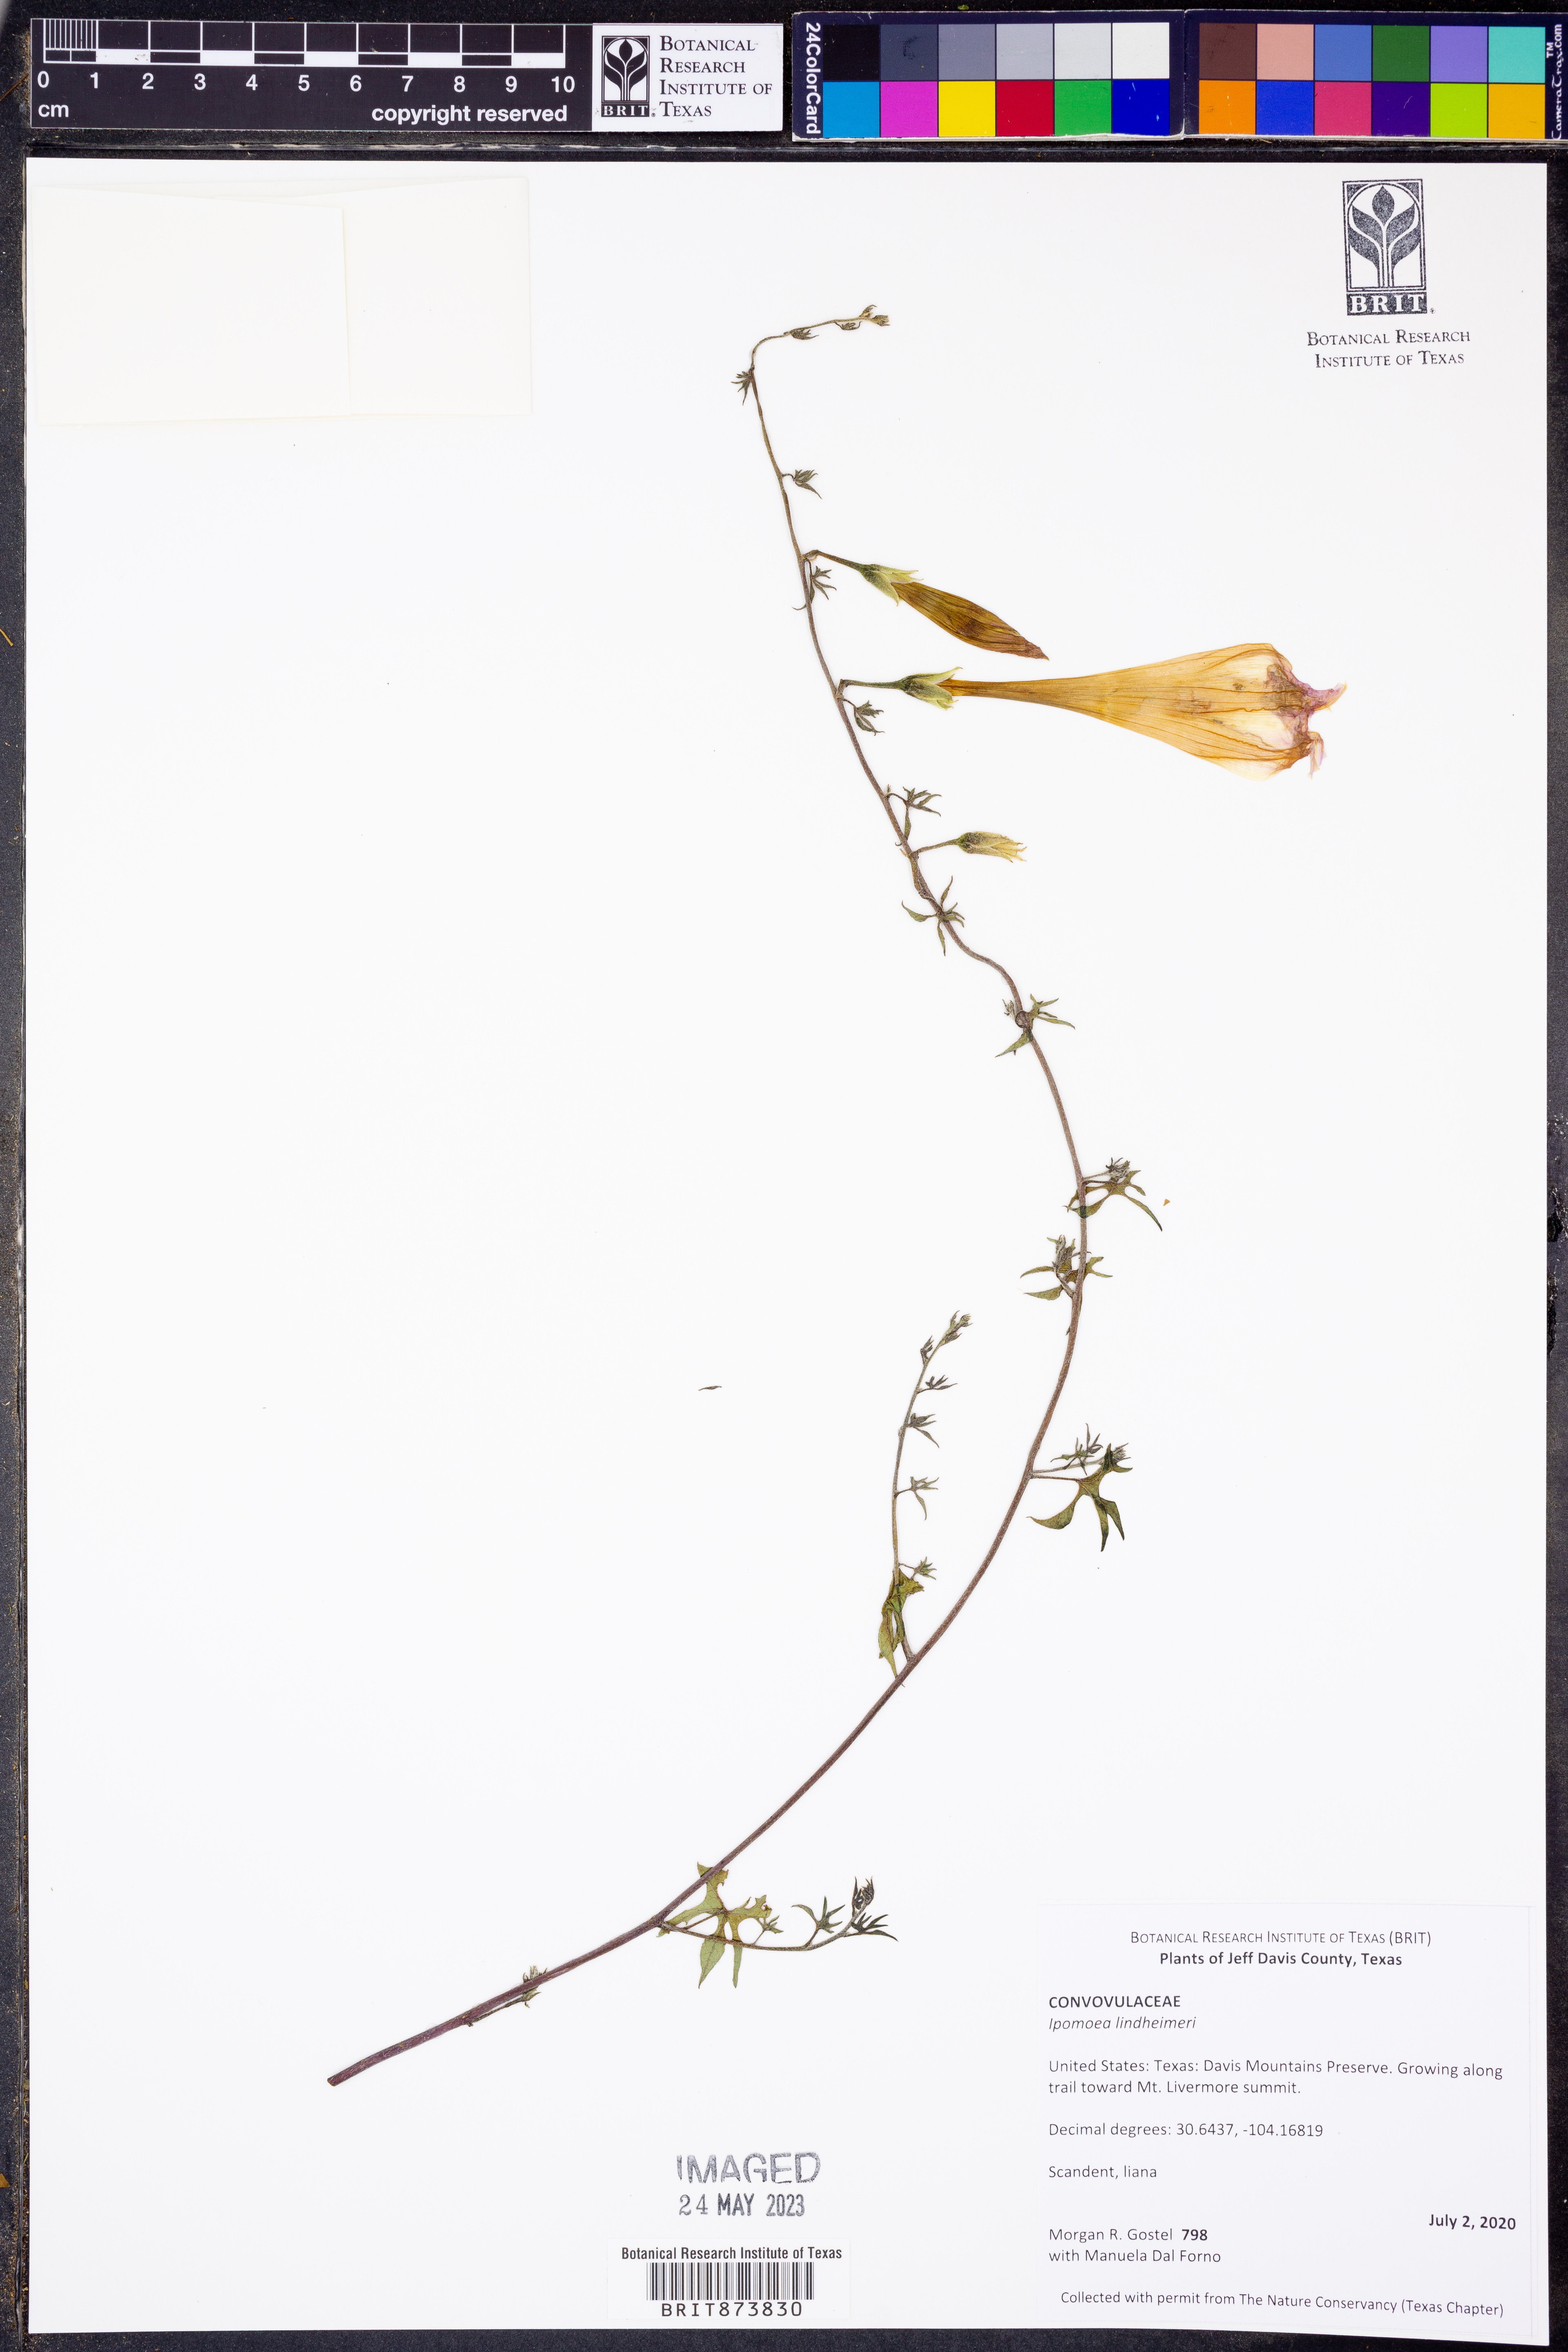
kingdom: Plantae
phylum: Tracheophyta
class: Magnoliopsida
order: Solanales
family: Convolvulaceae
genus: Ipomoea
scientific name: Ipomoea lindheimeri
